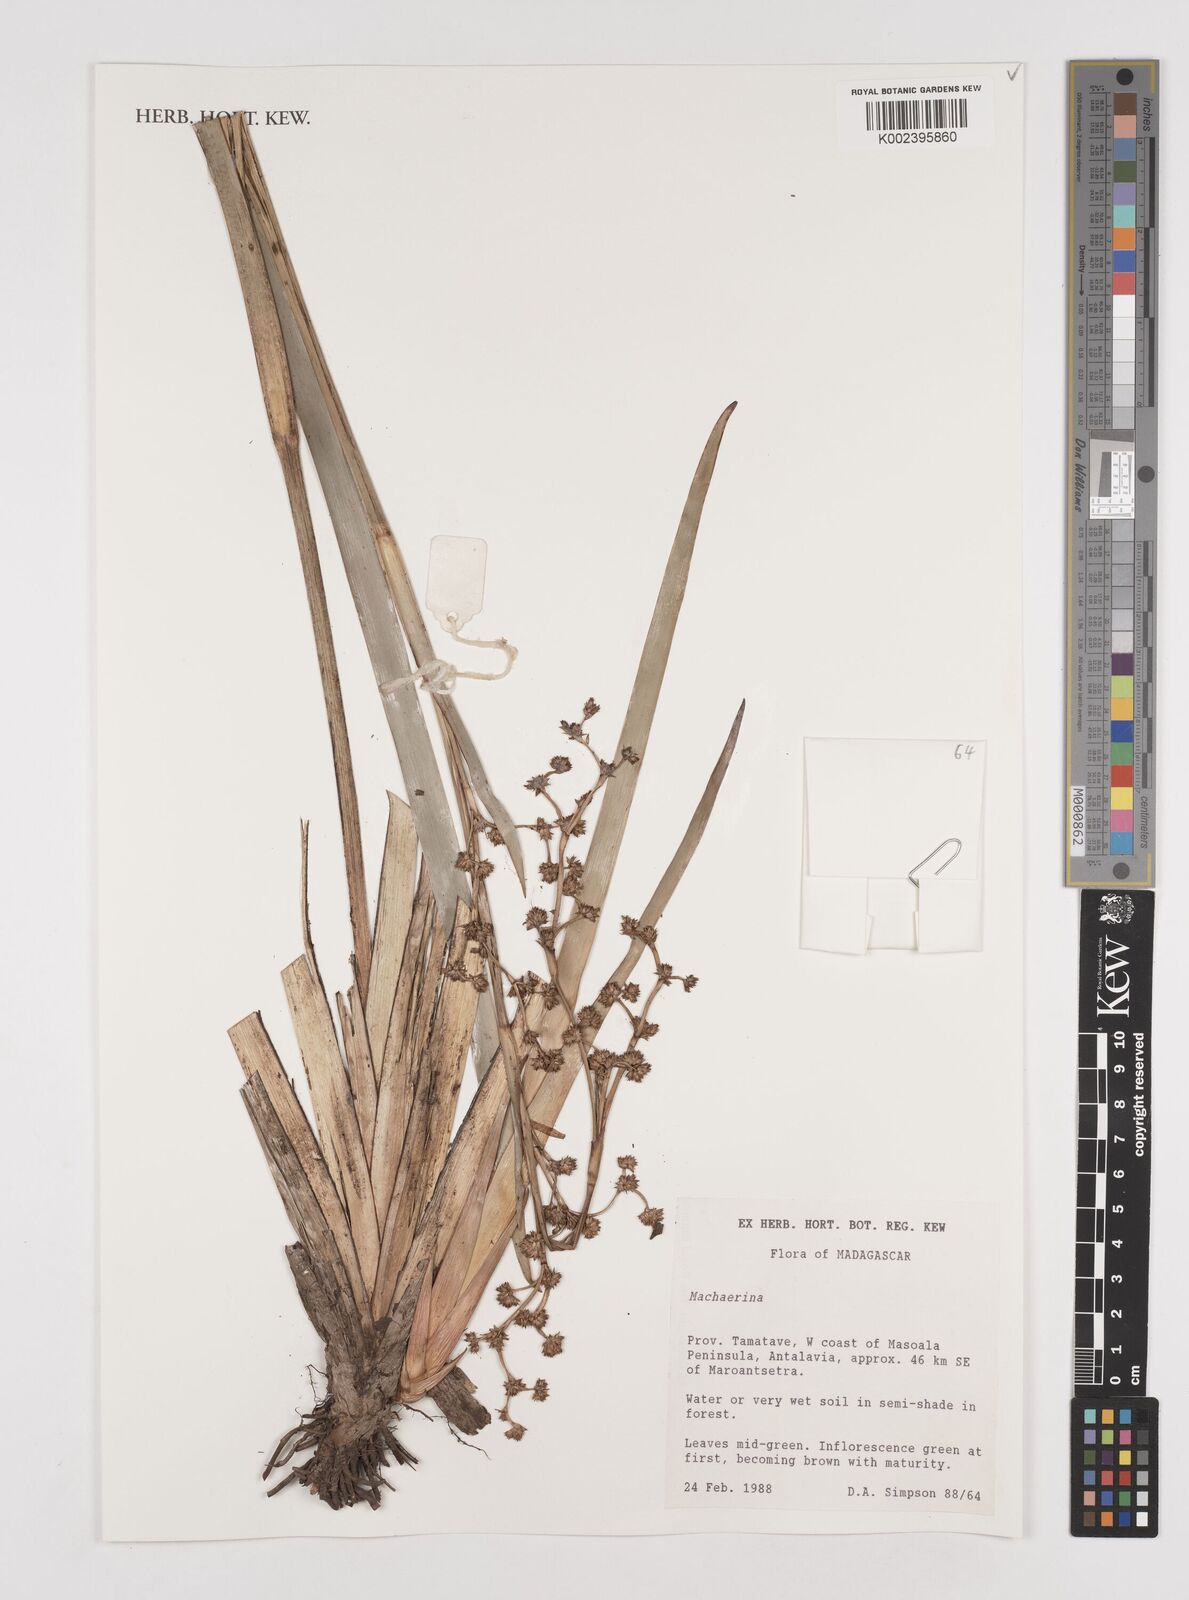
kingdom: Plantae
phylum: Tracheophyta
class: Liliopsida
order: Poales
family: Cyperaceae
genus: Machaerina
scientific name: Machaerina
